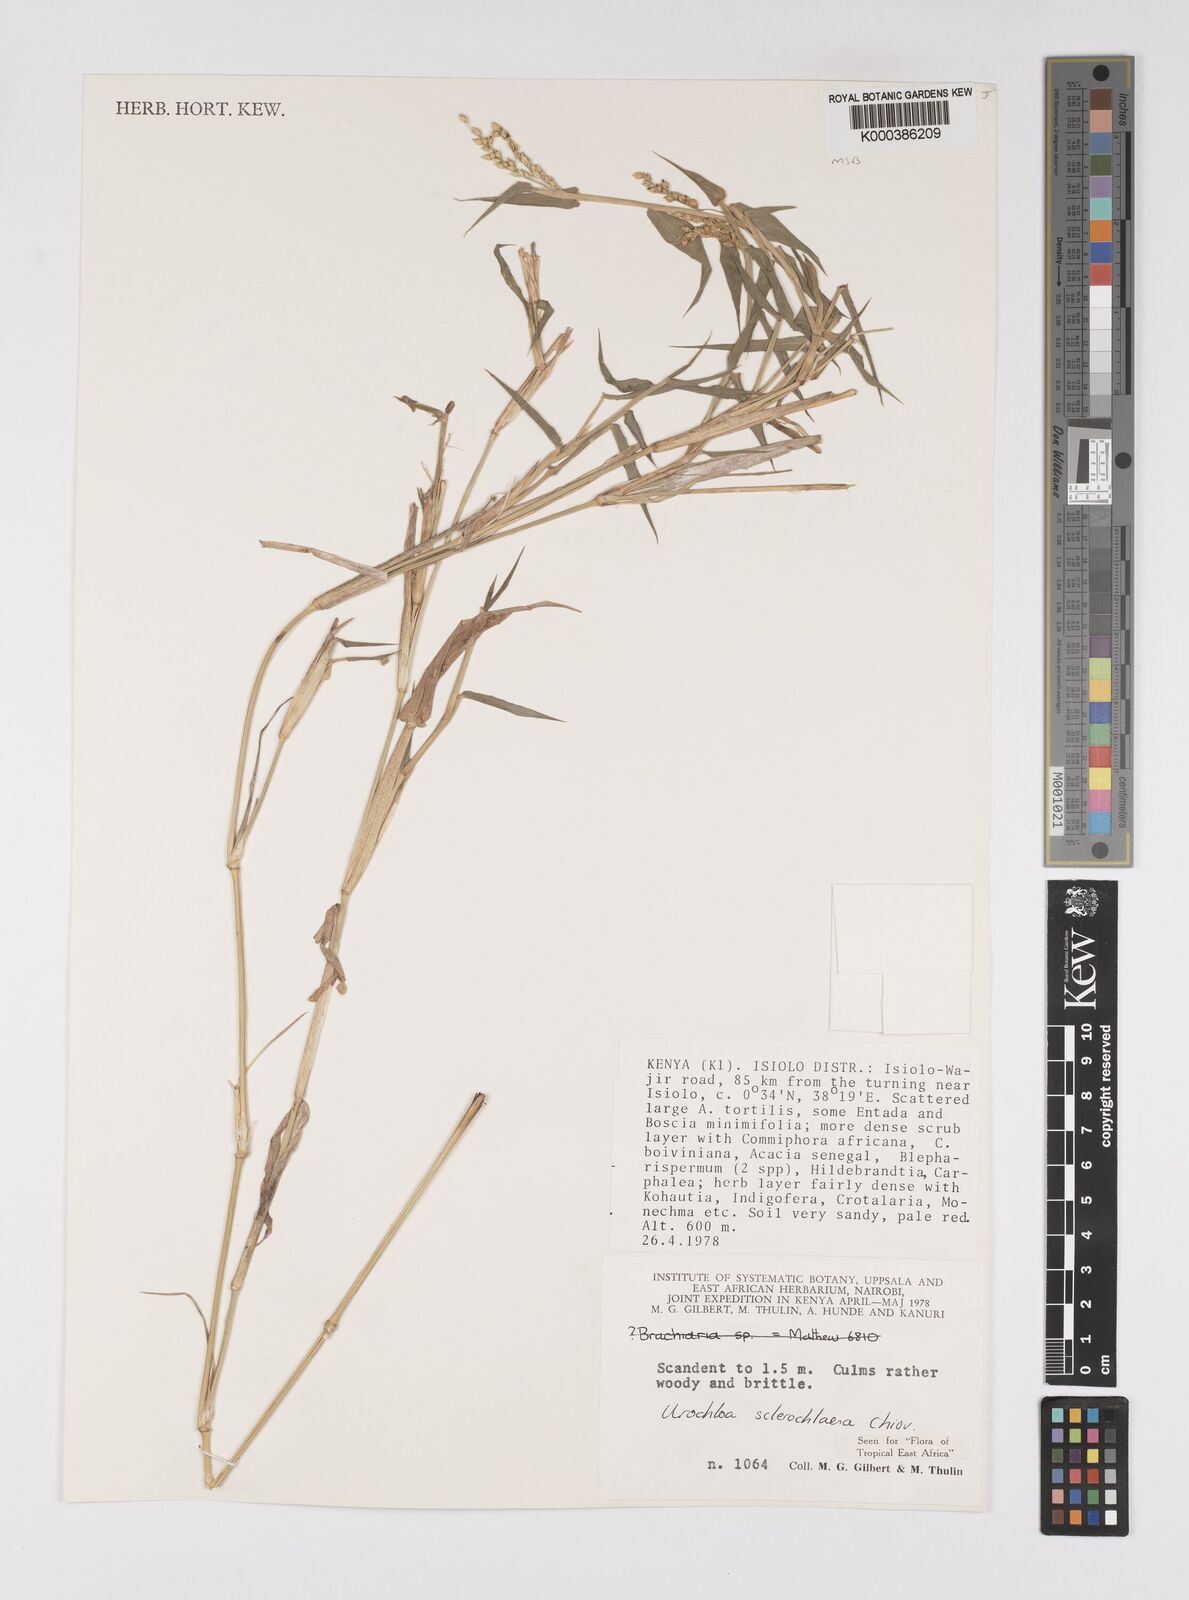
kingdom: Plantae
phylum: Tracheophyta
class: Liliopsida
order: Poales
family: Poaceae
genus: Urochloa
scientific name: Urochloa sclerochlaena
